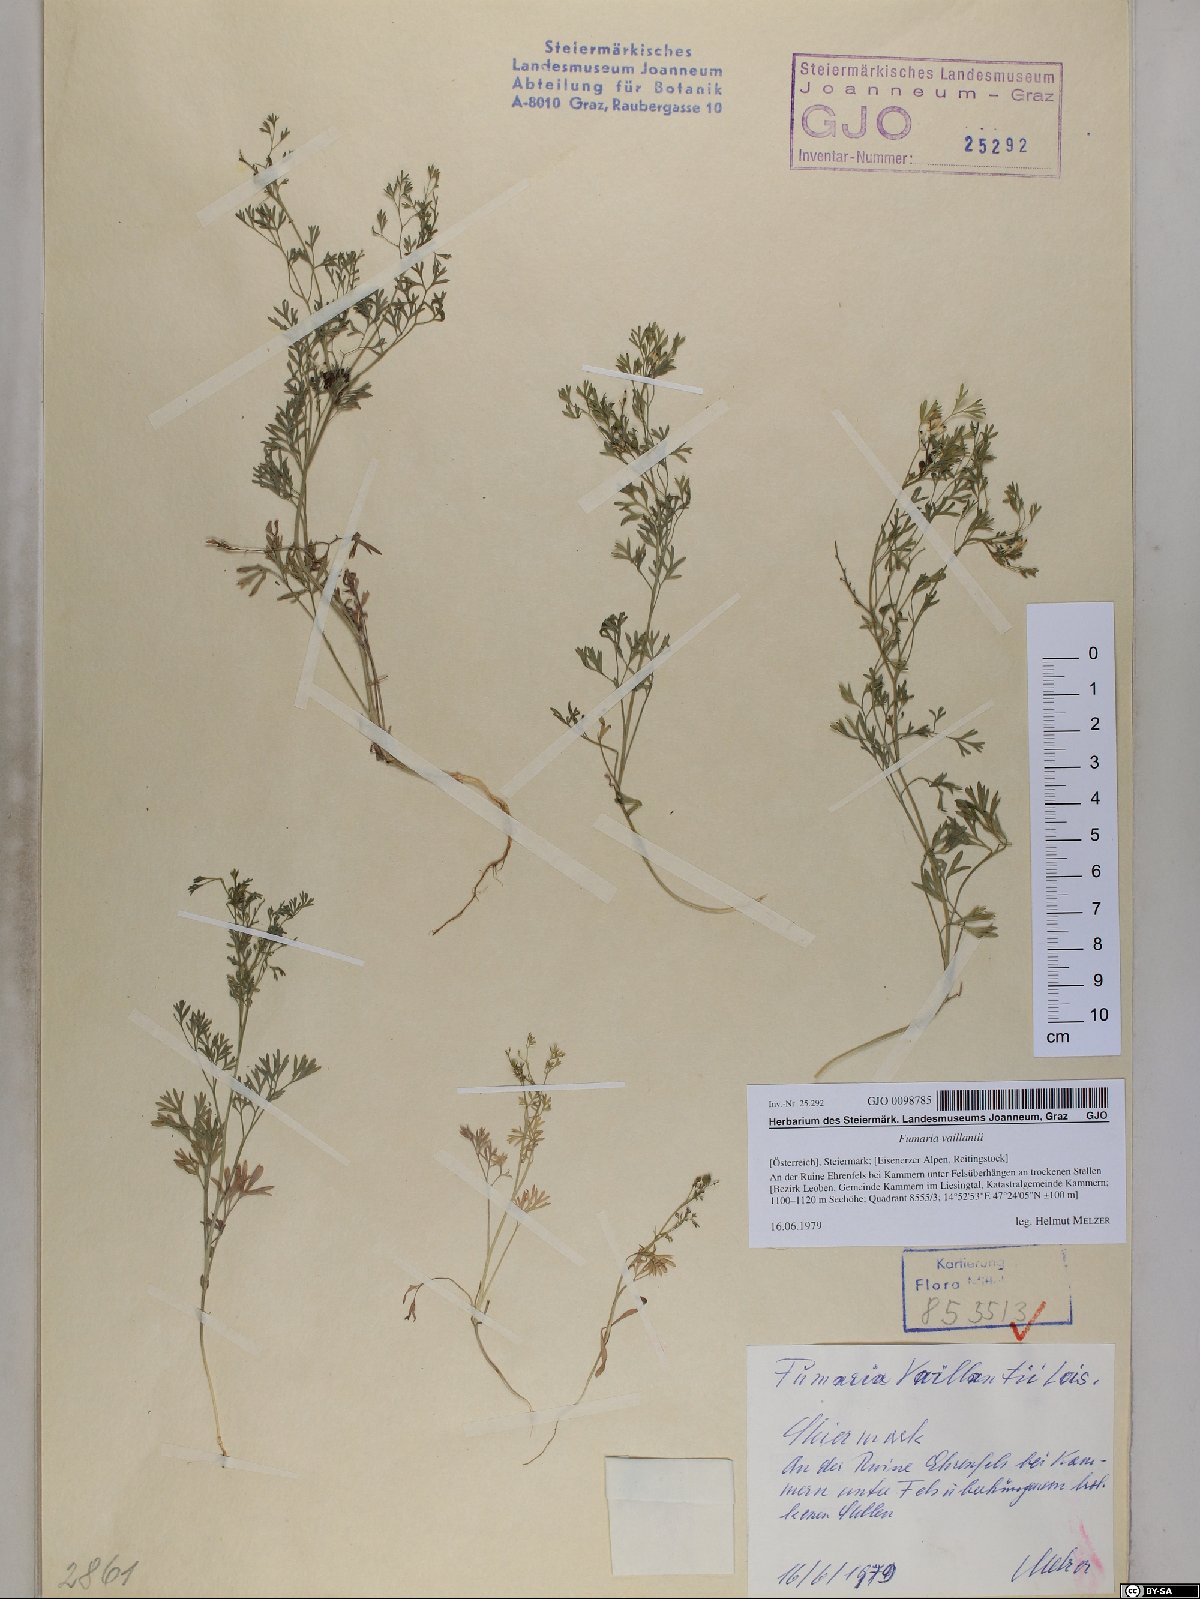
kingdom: Plantae
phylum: Tracheophyta
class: Magnoliopsida
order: Ranunculales
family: Papaveraceae
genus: Fumaria
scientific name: Fumaria vaillantii
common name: Few-flowered fumitory
